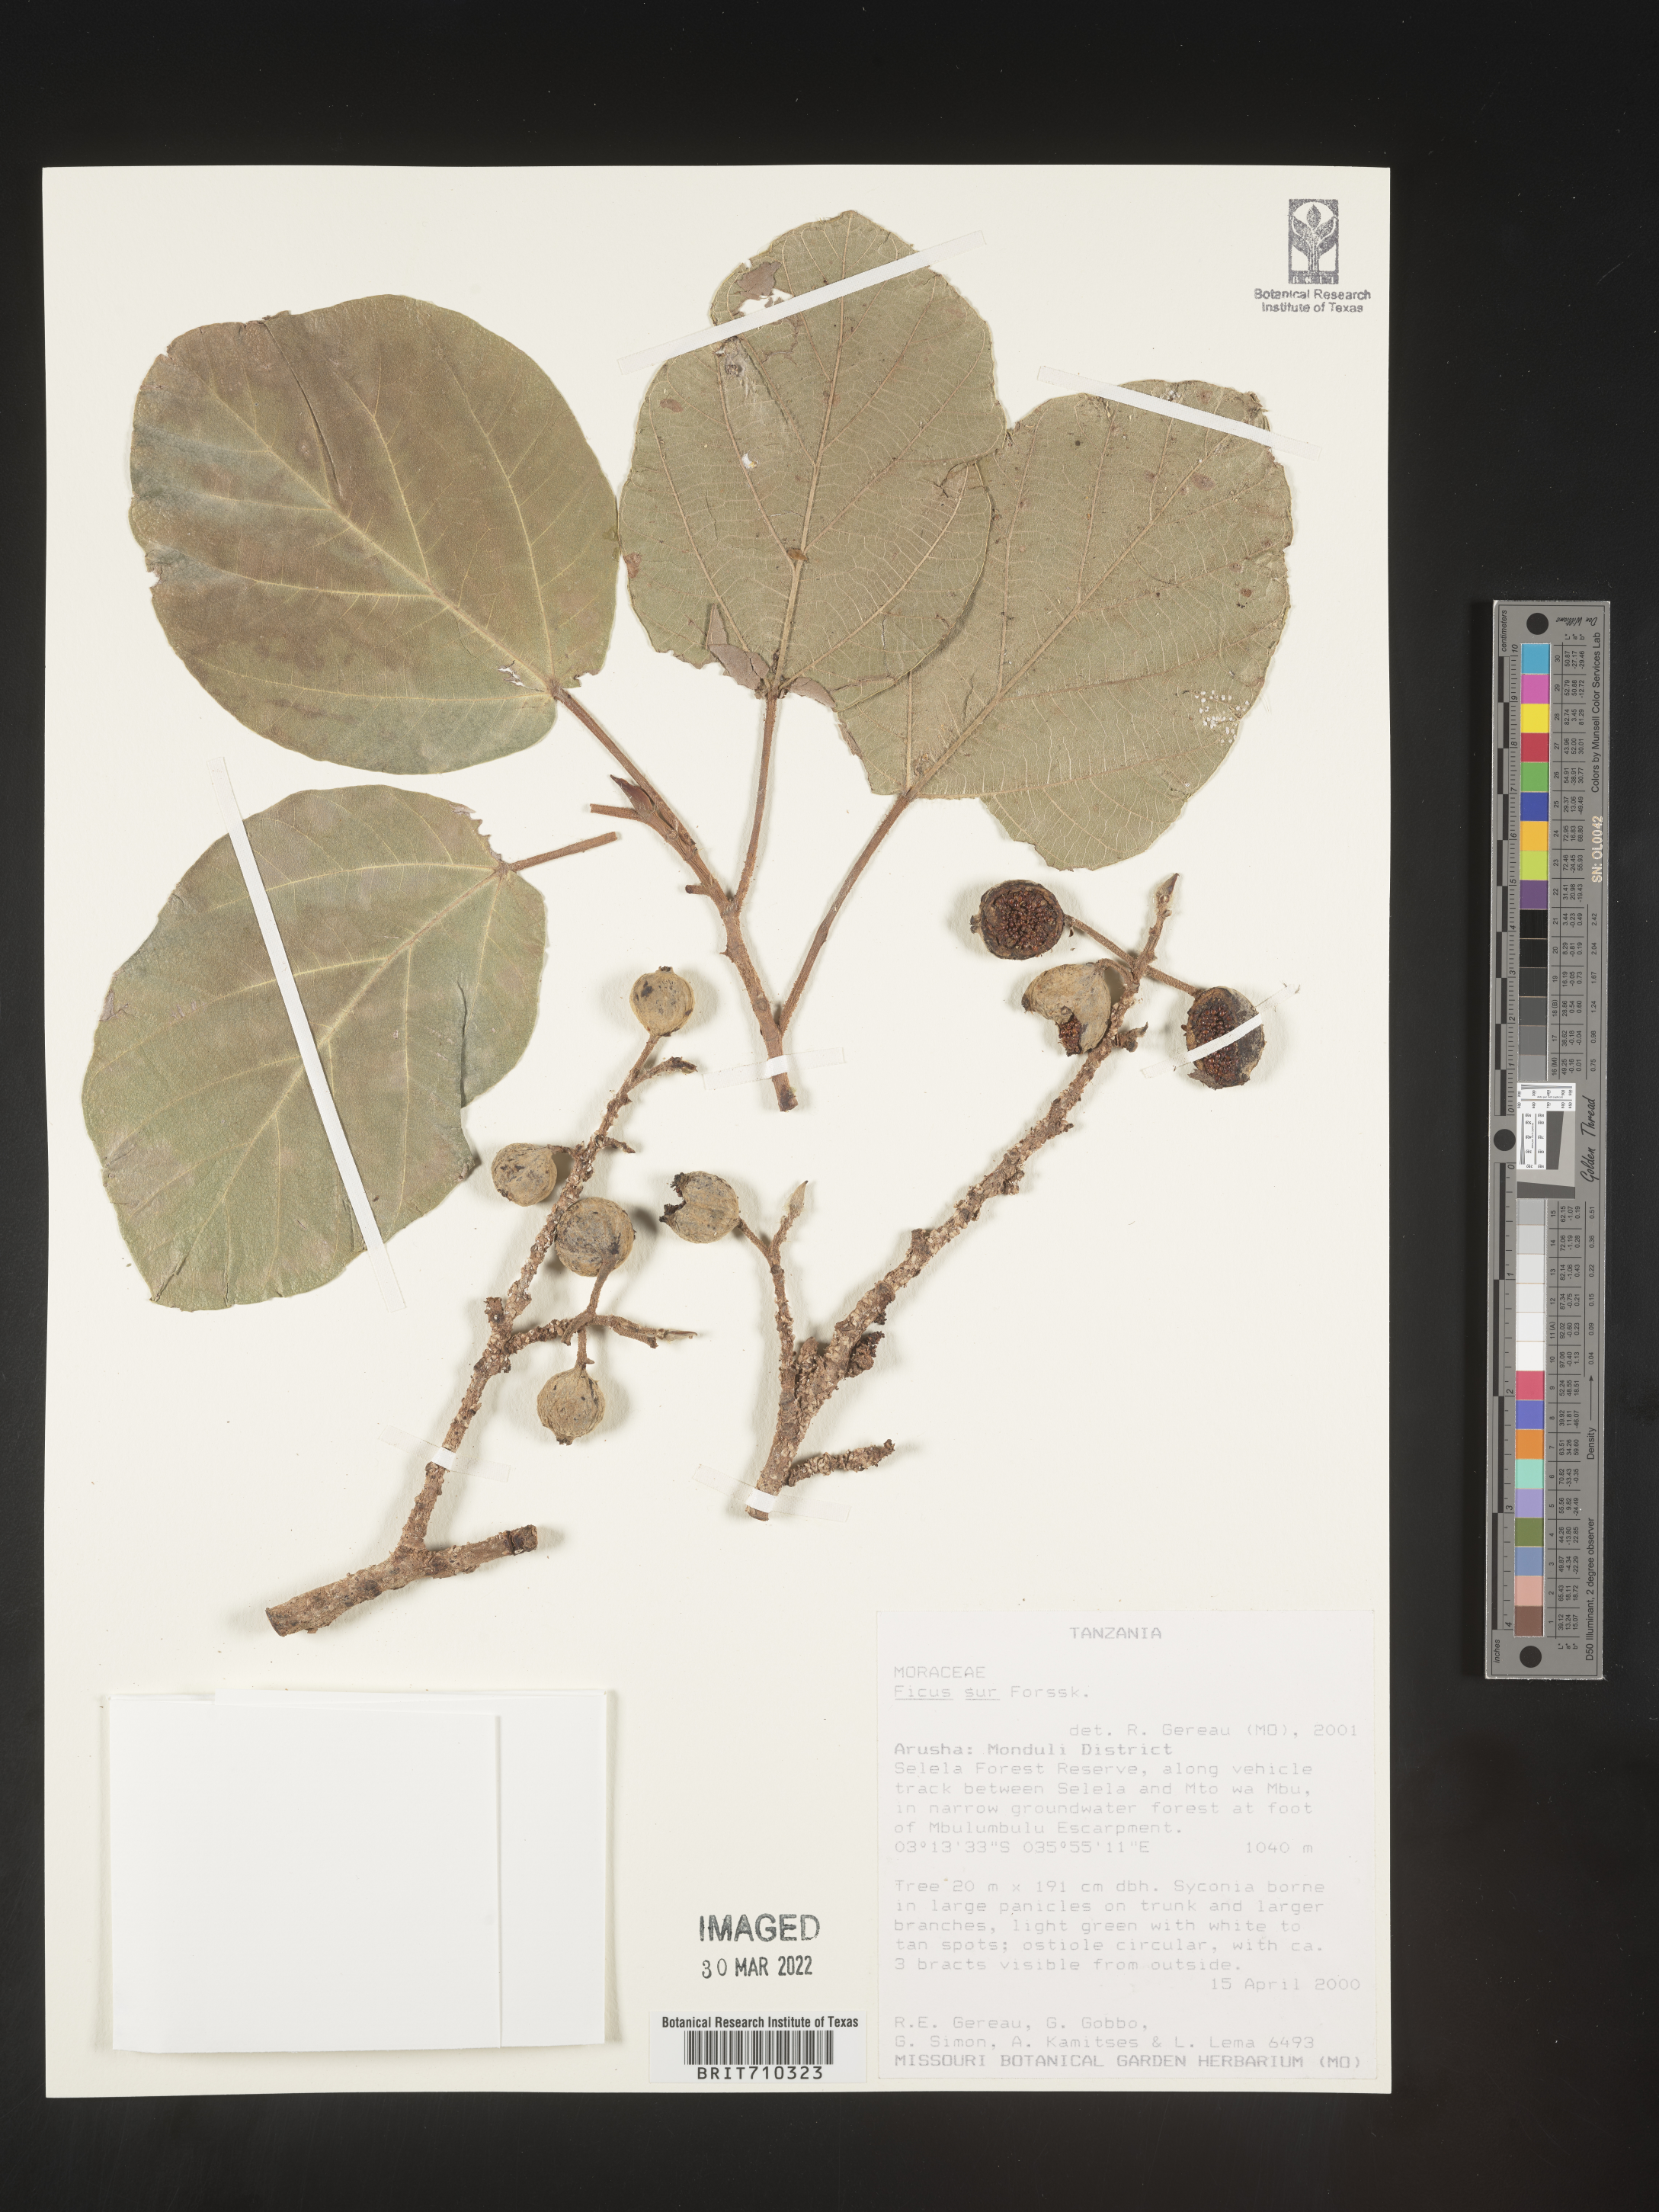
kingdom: Plantae
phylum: Tracheophyta
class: Magnoliopsida
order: Rosales
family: Moraceae
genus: Ficus
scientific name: Ficus
